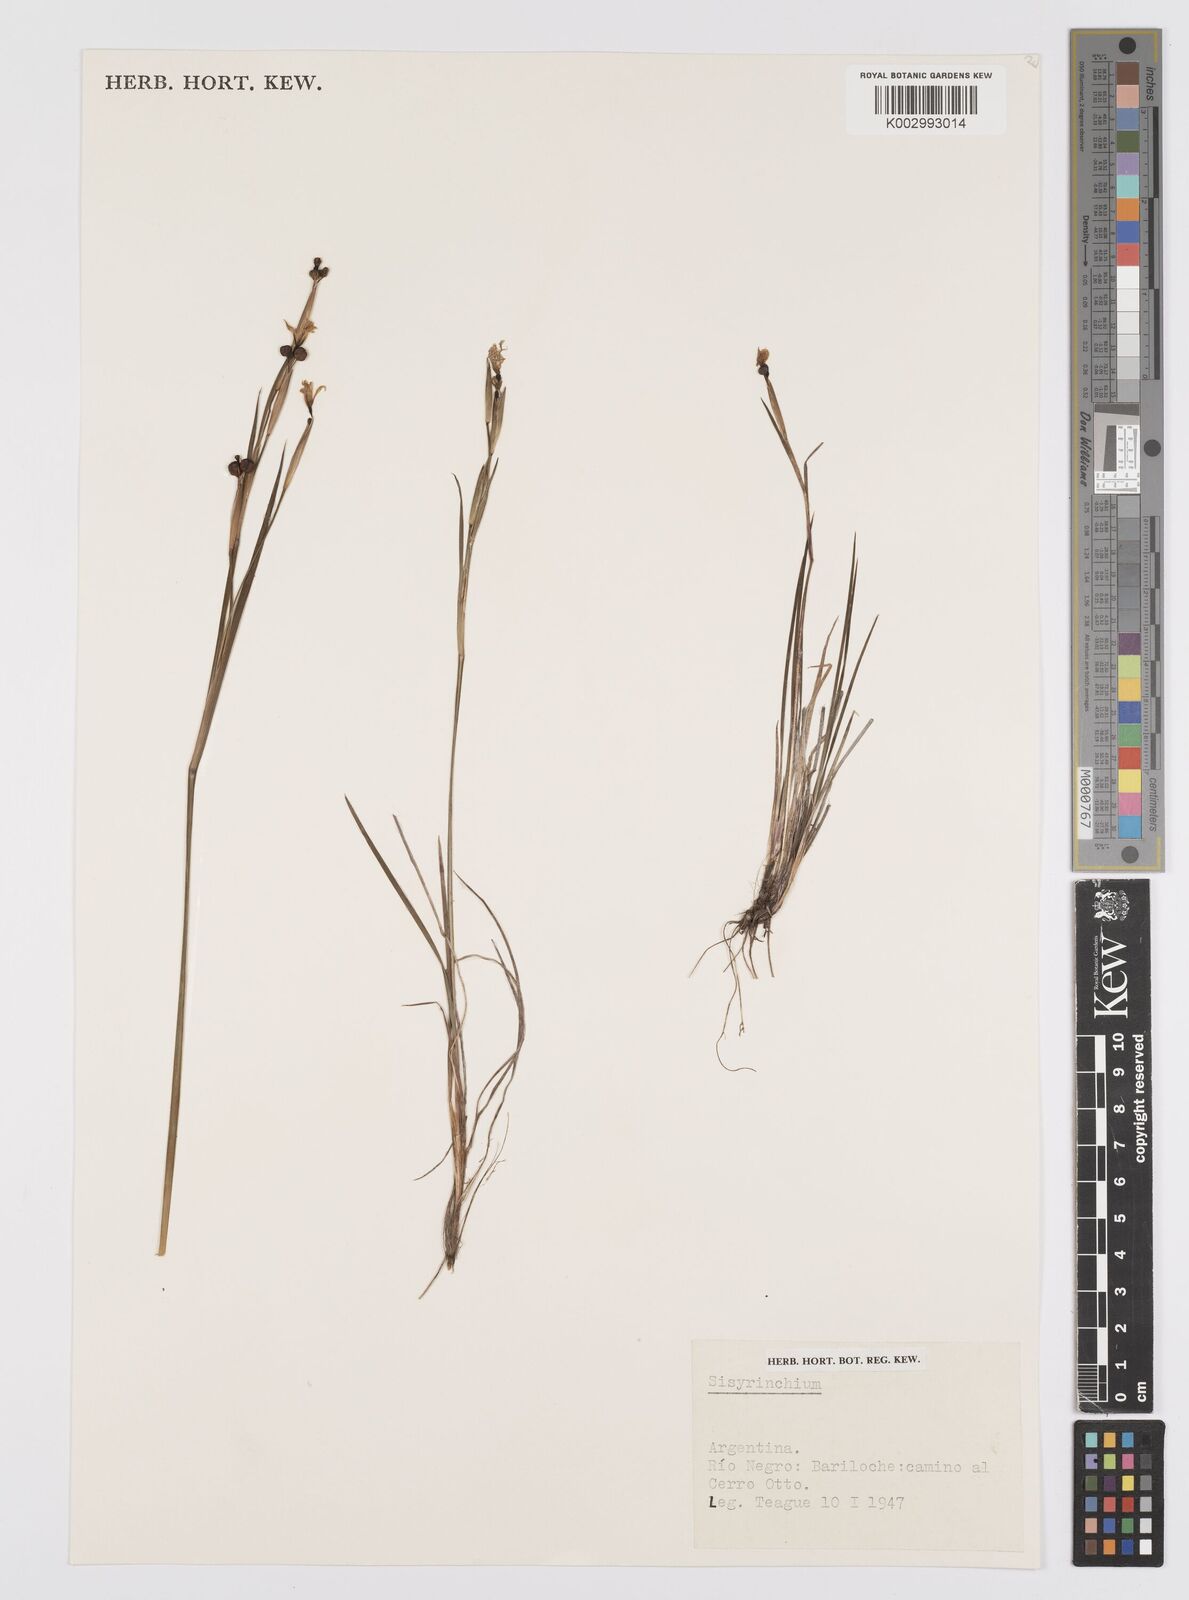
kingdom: Plantae
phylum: Tracheophyta
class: Liliopsida
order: Asparagales
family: Iridaceae
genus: Sisyrinchium
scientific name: Sisyrinchium
